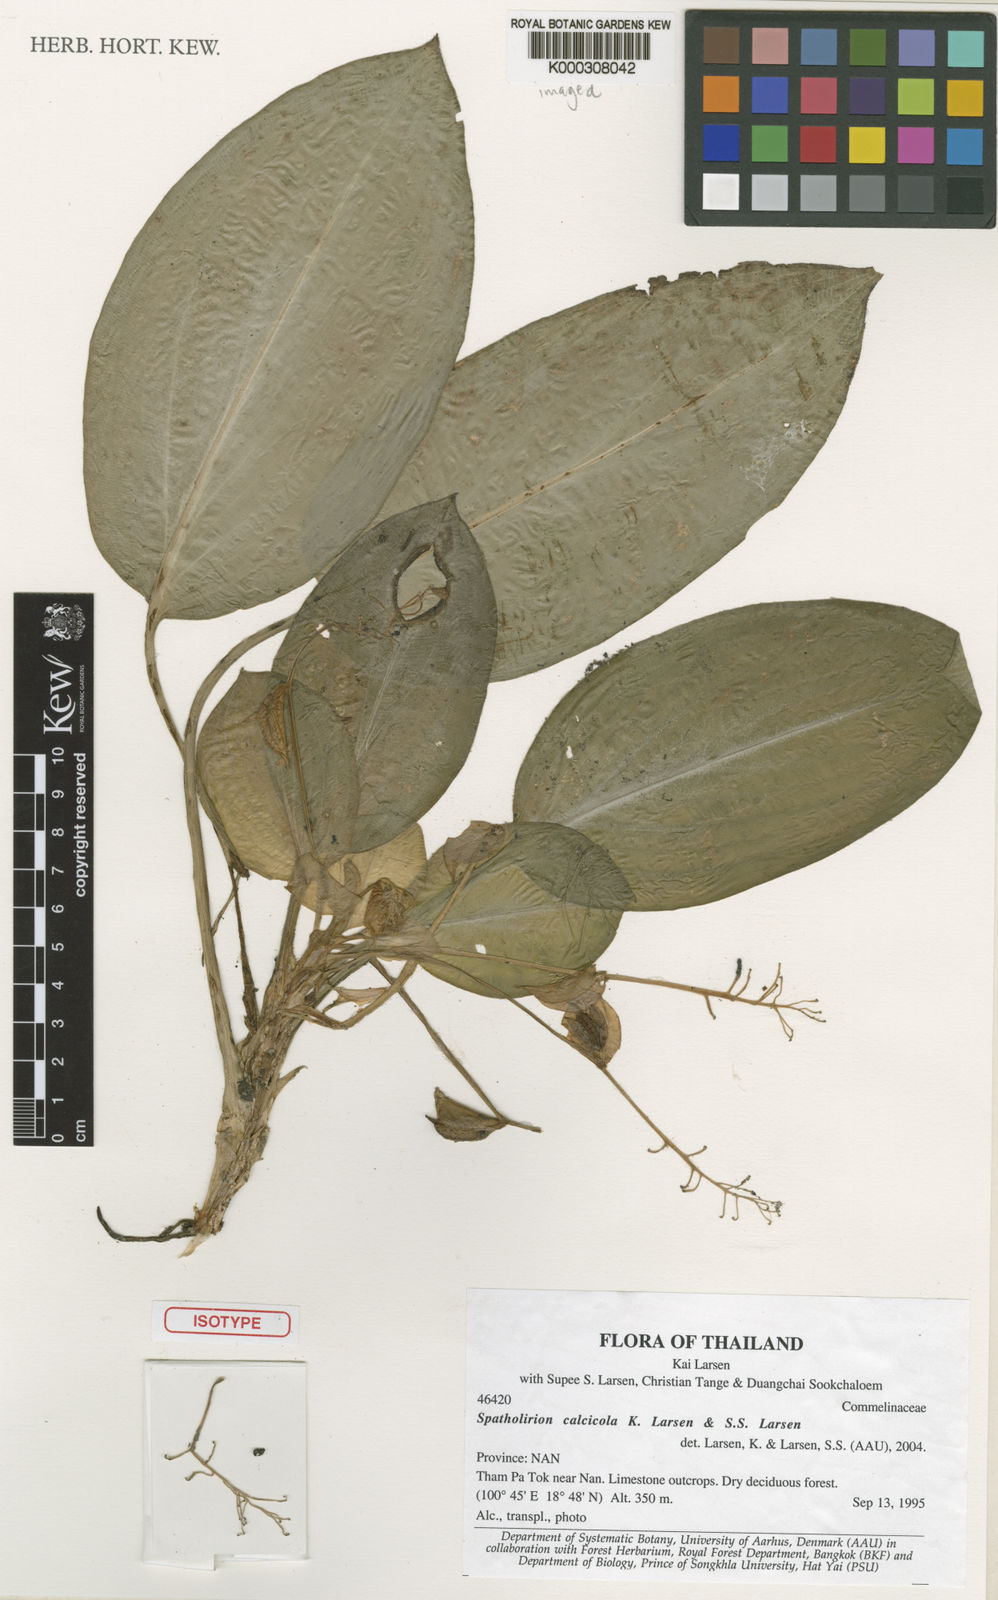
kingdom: Plantae
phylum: Tracheophyta
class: Liliopsida
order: Commelinales
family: Commelinaceae
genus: Spatholirion
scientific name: Spatholirion calcicola
